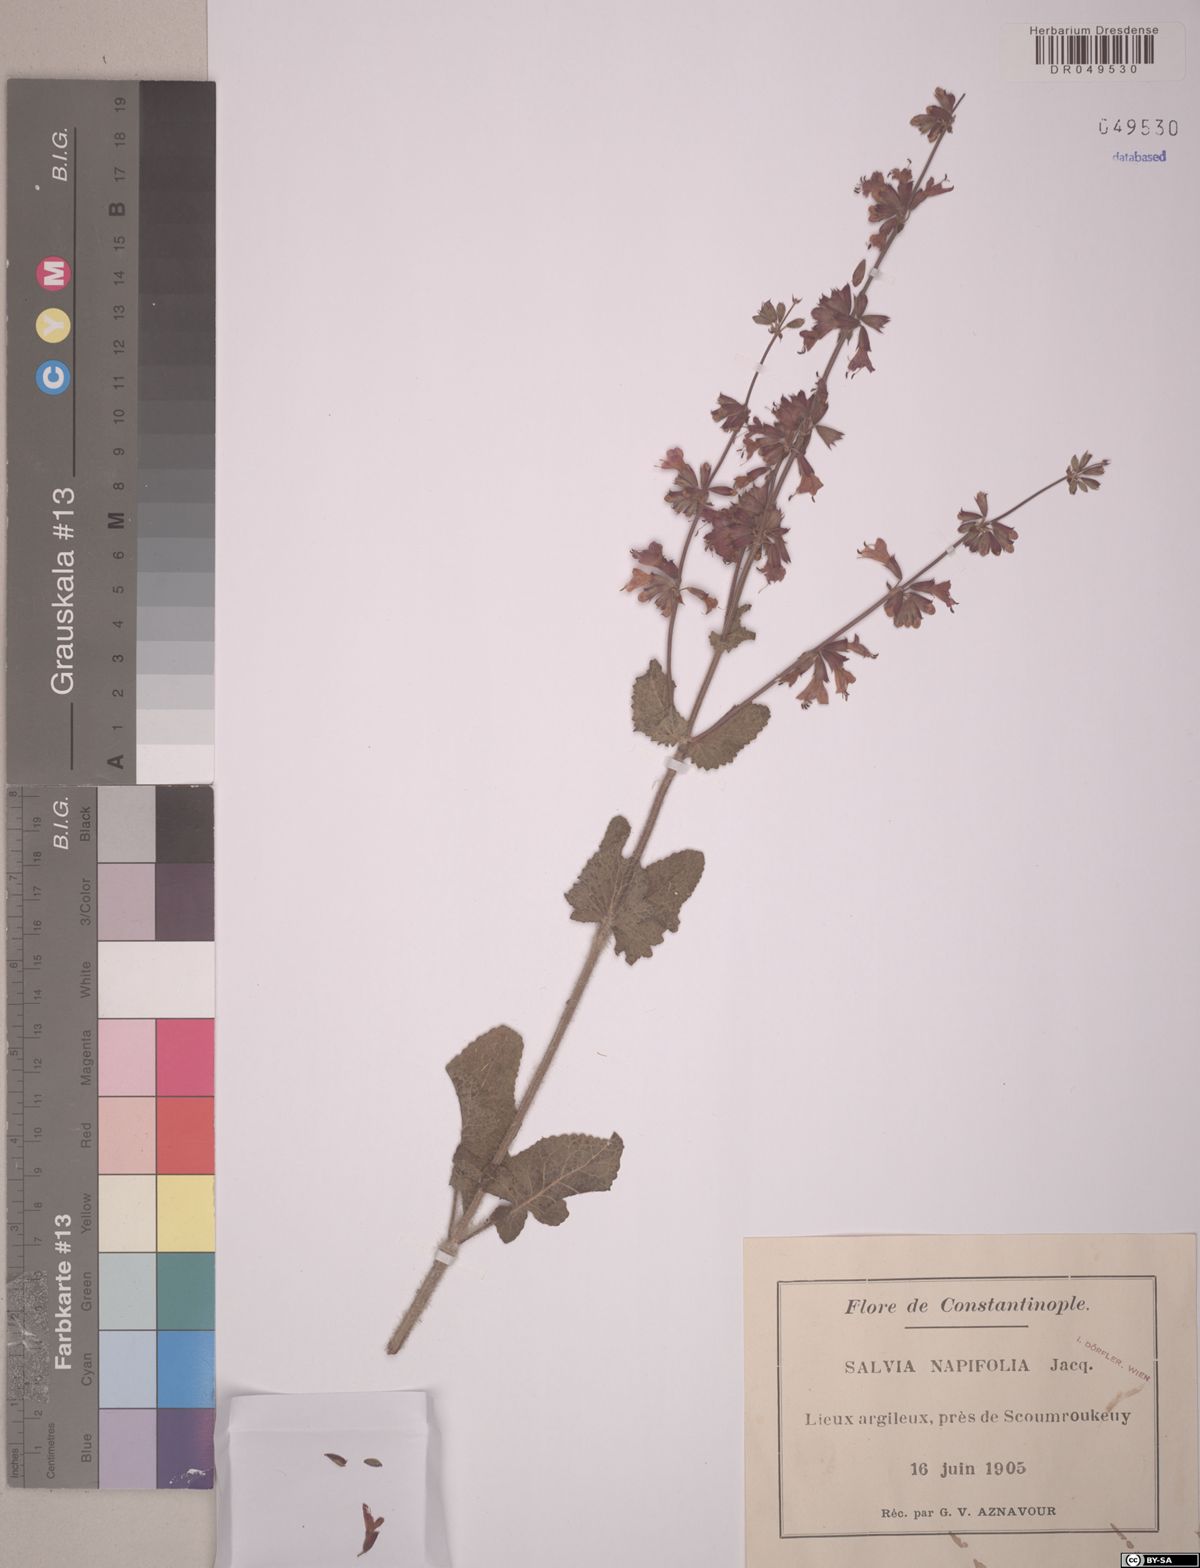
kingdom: Plantae
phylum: Tracheophyta
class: Magnoliopsida
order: Lamiales
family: Lamiaceae
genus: Salvia
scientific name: Salvia napifolia
